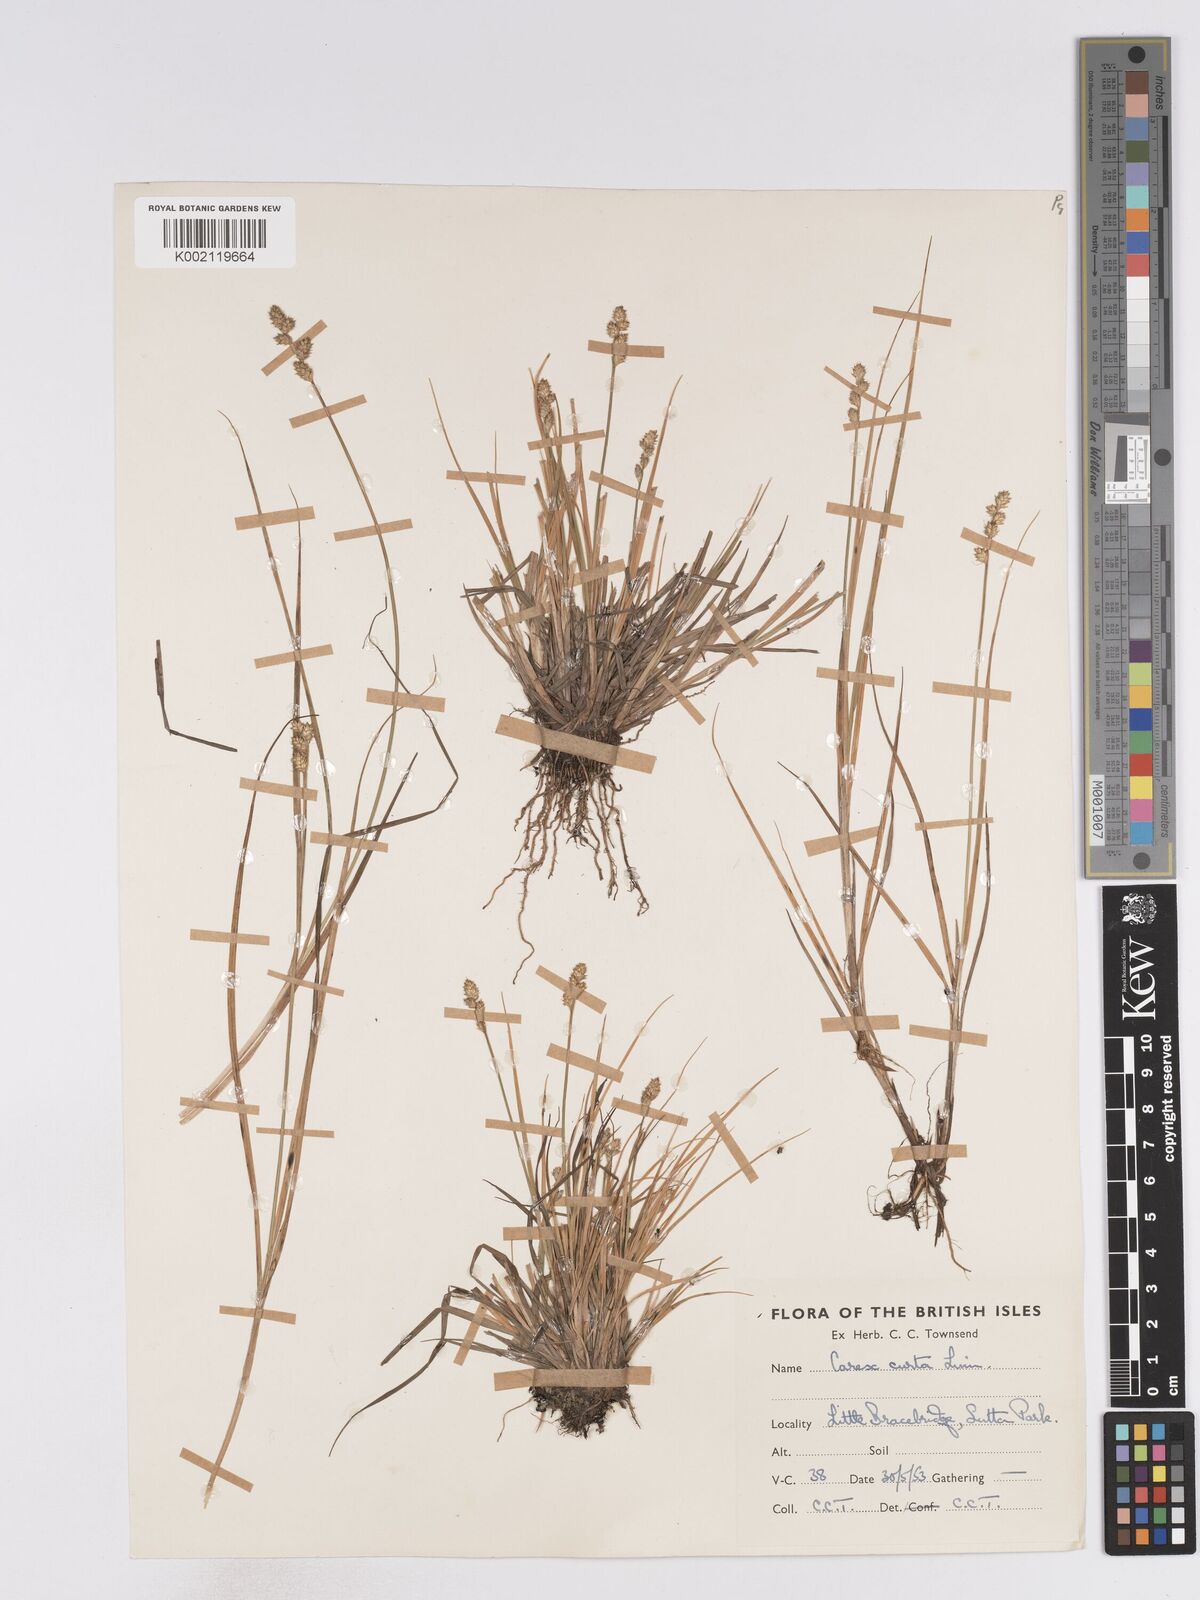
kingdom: Plantae
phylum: Tracheophyta
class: Liliopsida
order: Poales
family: Cyperaceae
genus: Carex
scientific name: Carex curta
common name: White sedge
